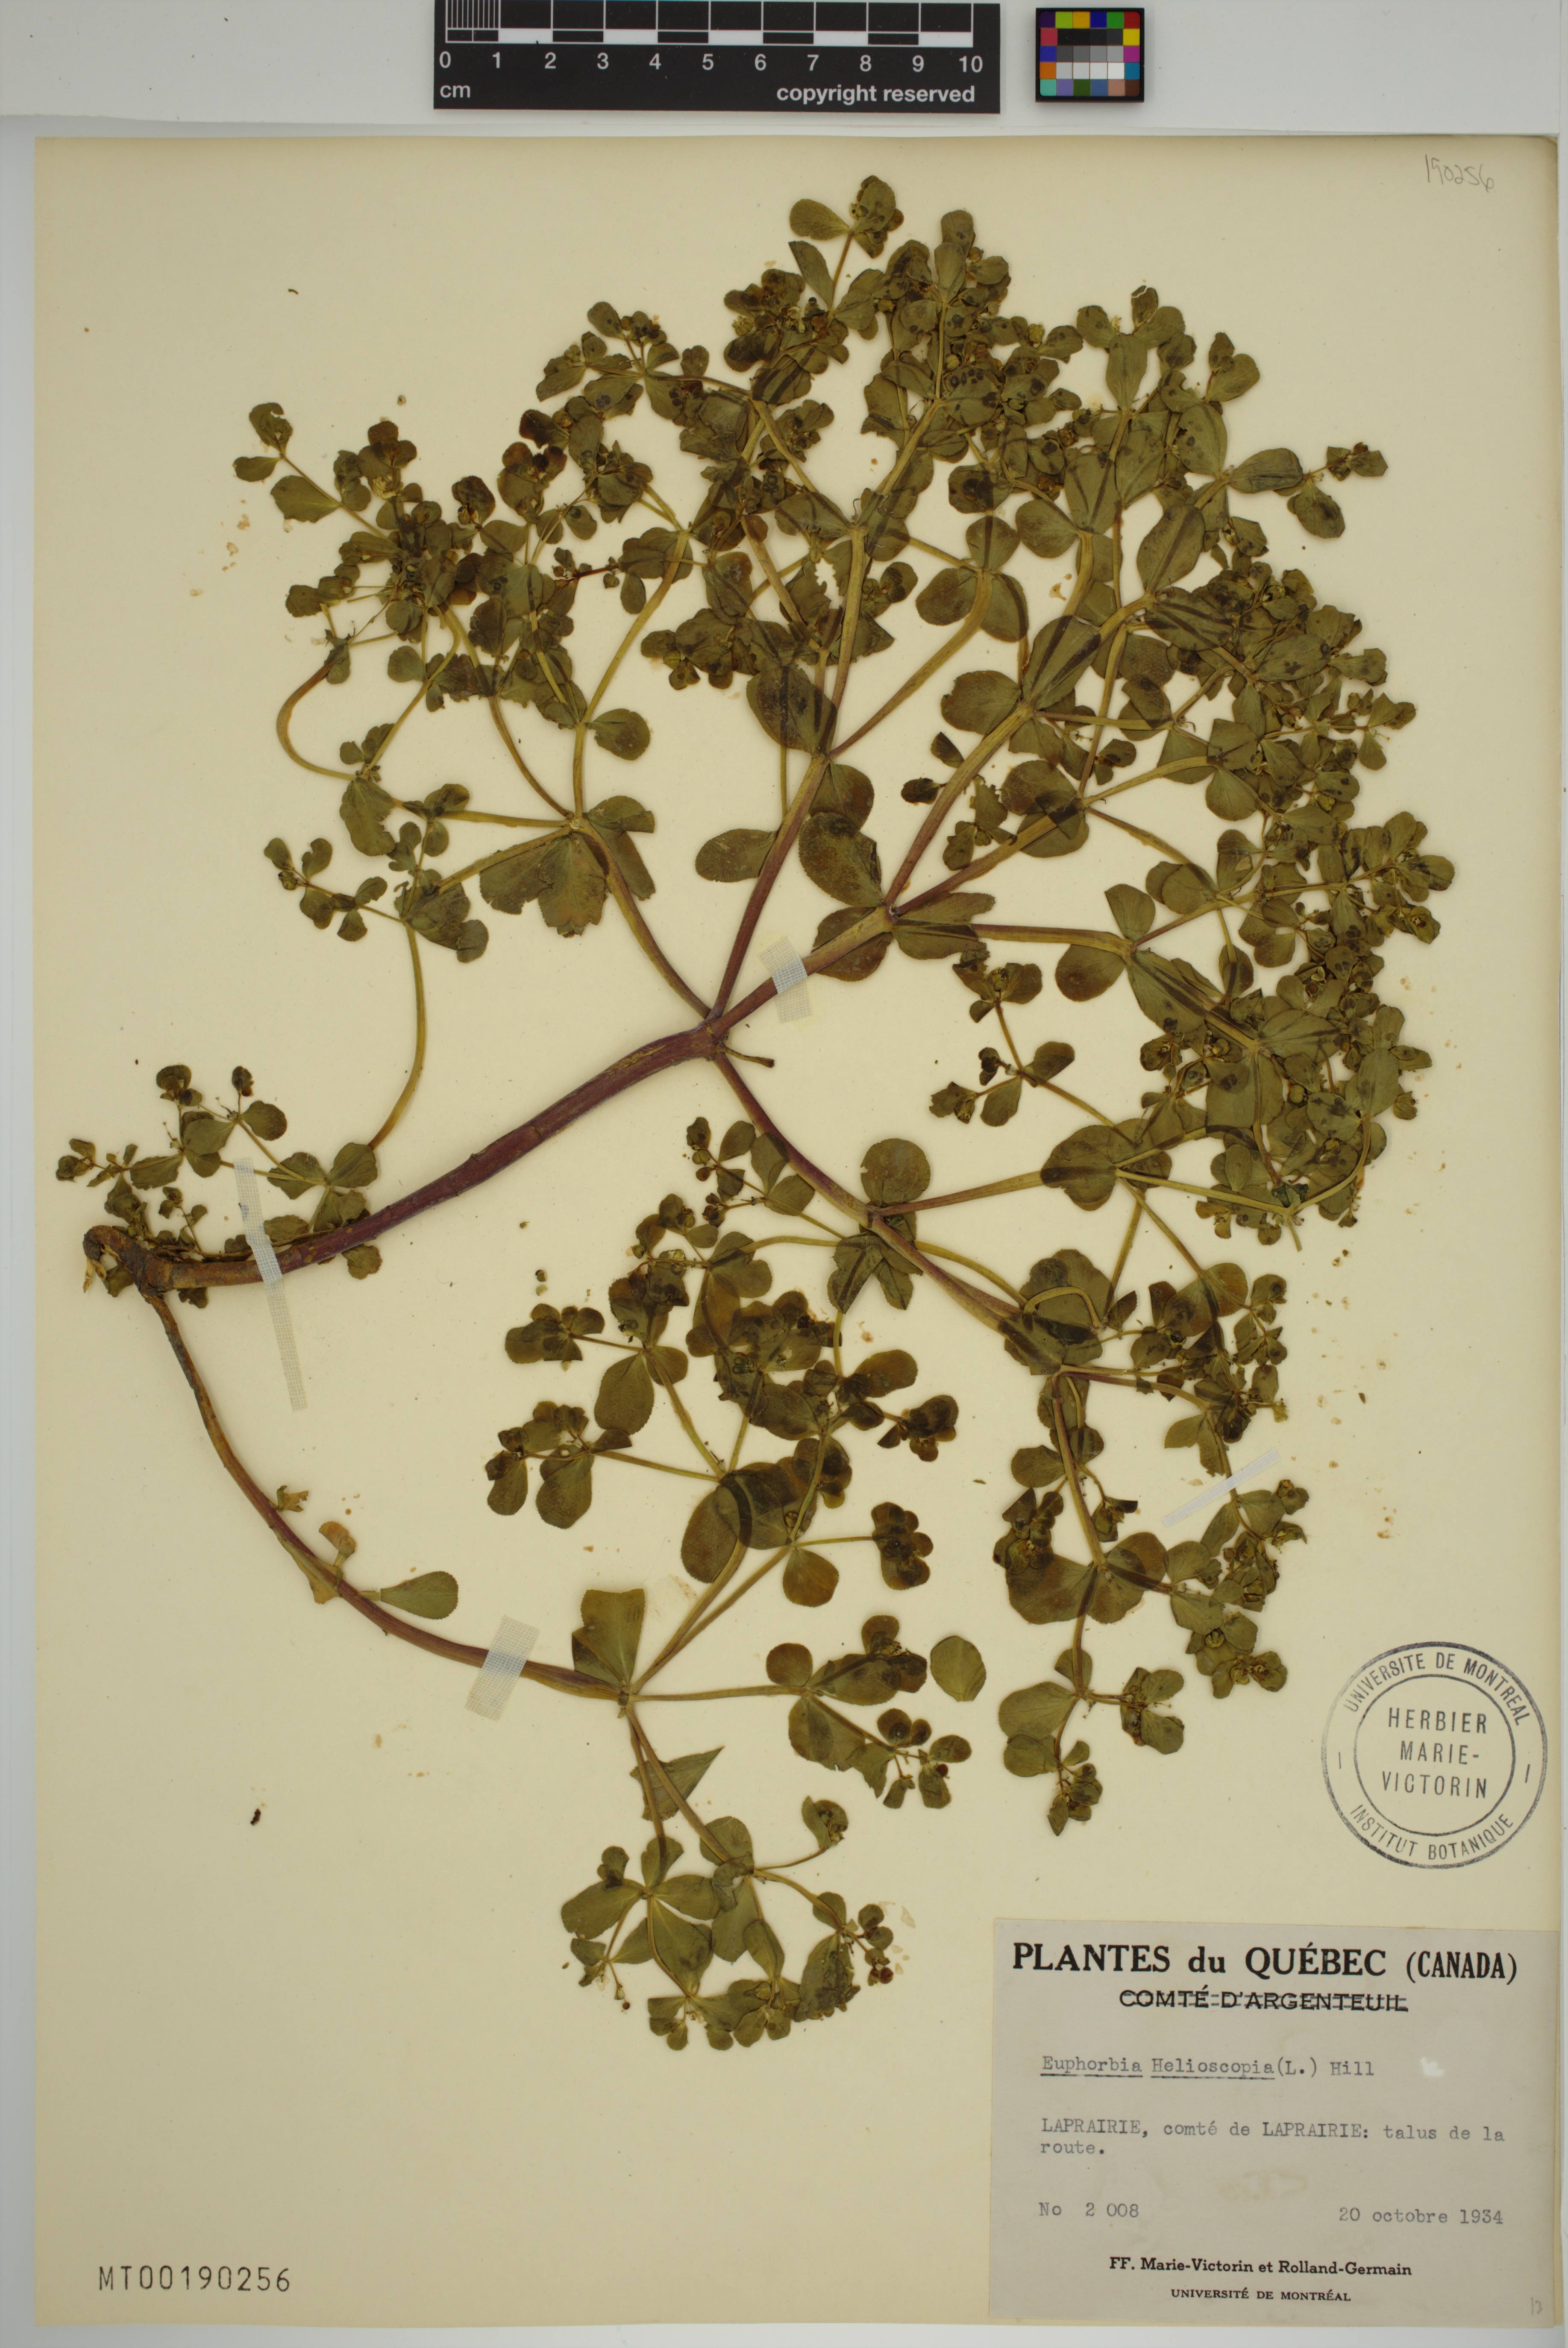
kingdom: Plantae
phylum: Tracheophyta
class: Magnoliopsida
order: Malpighiales
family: Euphorbiaceae
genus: Euphorbia
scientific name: Euphorbia helioscopia
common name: Sun spurge
